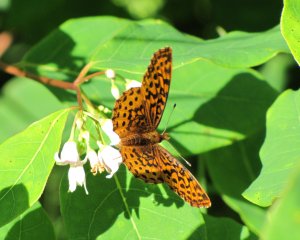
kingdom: Animalia
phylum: Arthropoda
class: Insecta
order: Lepidoptera
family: Nymphalidae
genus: Clossiana
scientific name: Clossiana toddi
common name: Meadow Fritillary
